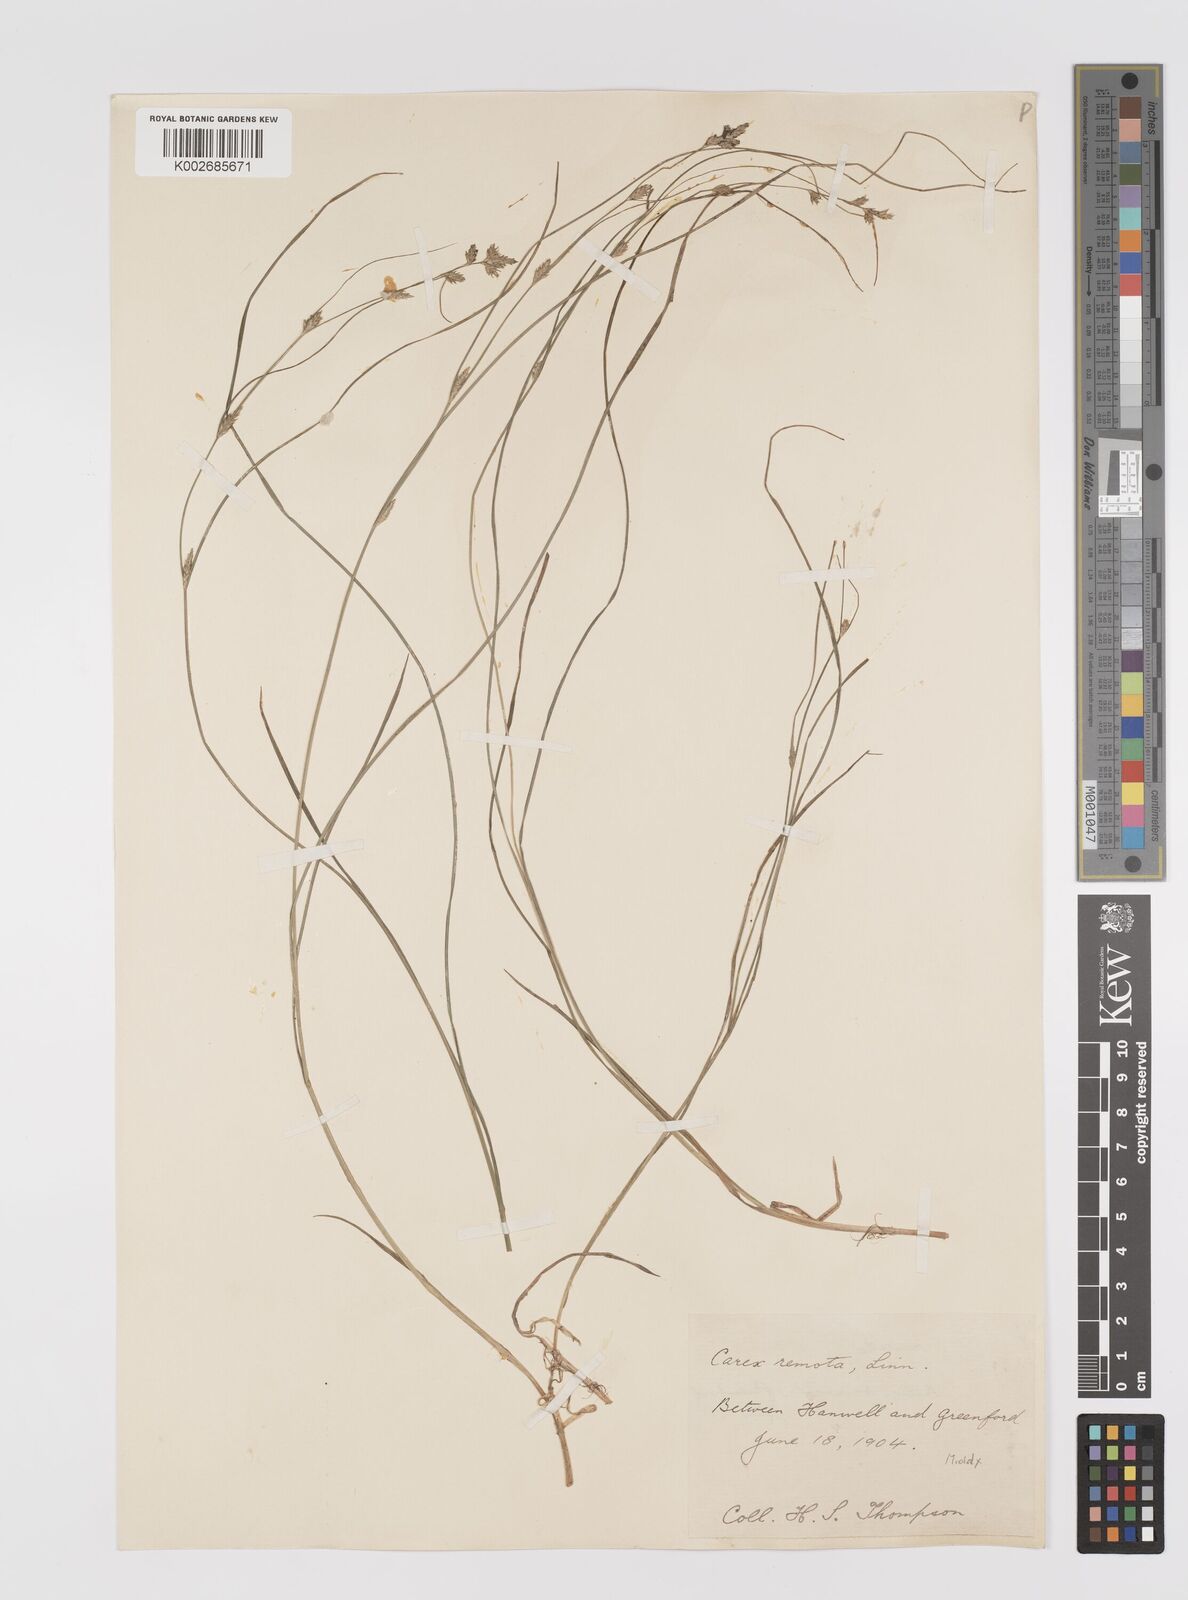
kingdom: Plantae
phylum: Tracheophyta
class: Liliopsida
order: Poales
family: Cyperaceae
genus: Carex
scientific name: Carex remota
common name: Remote sedge
